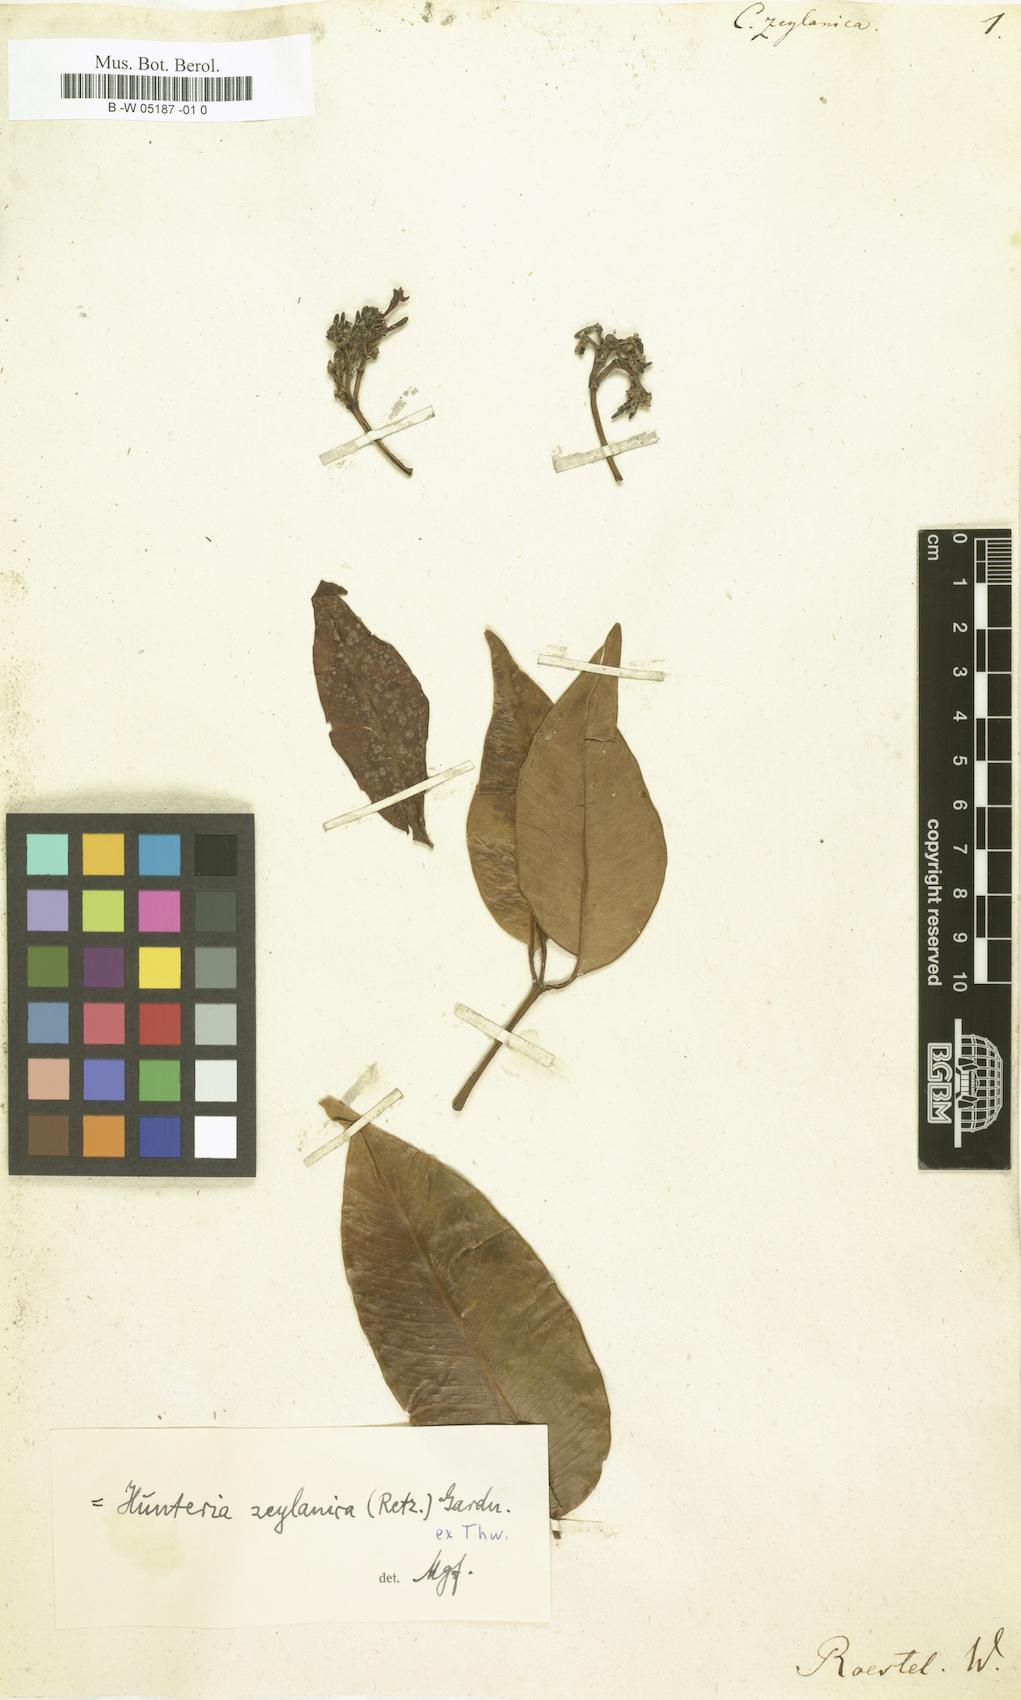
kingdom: Plantae
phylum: Tracheophyta
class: Magnoliopsida
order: Gentianales
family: Apocynaceae
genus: Cameraria
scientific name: Cameraria zeylanica
